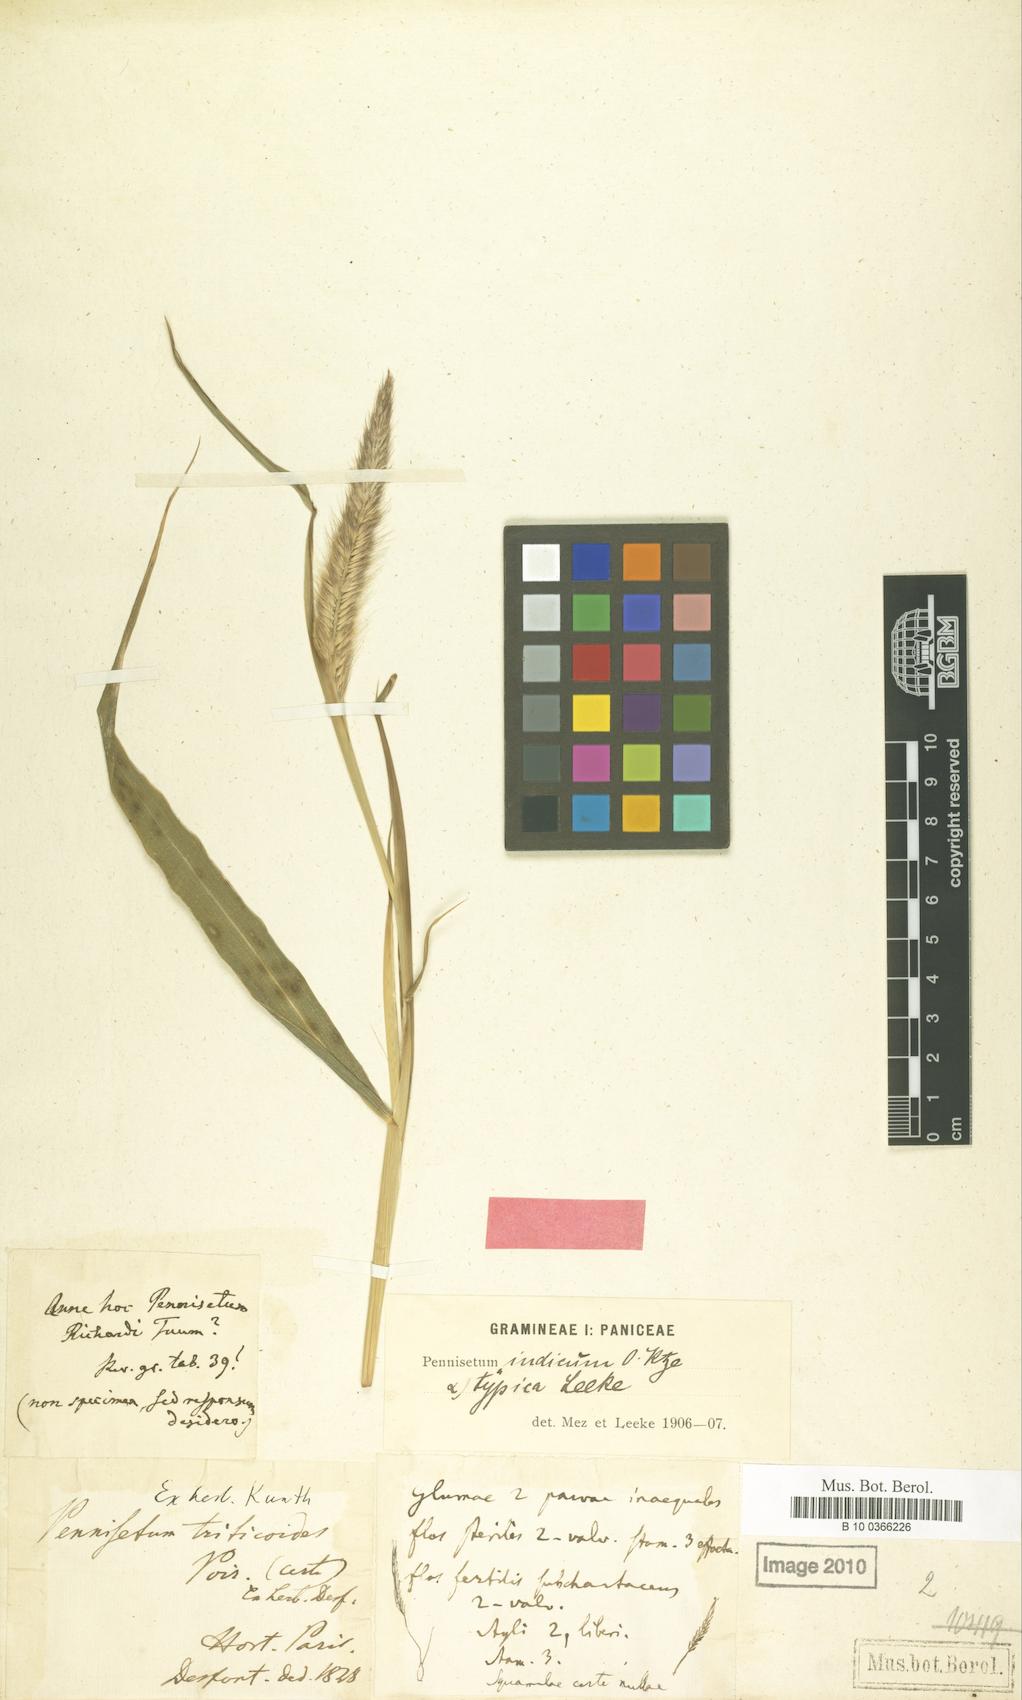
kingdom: Plantae
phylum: Tracheophyta
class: Liliopsida
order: Poales
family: Poaceae
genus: Cenchrus
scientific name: Cenchrus setosus
